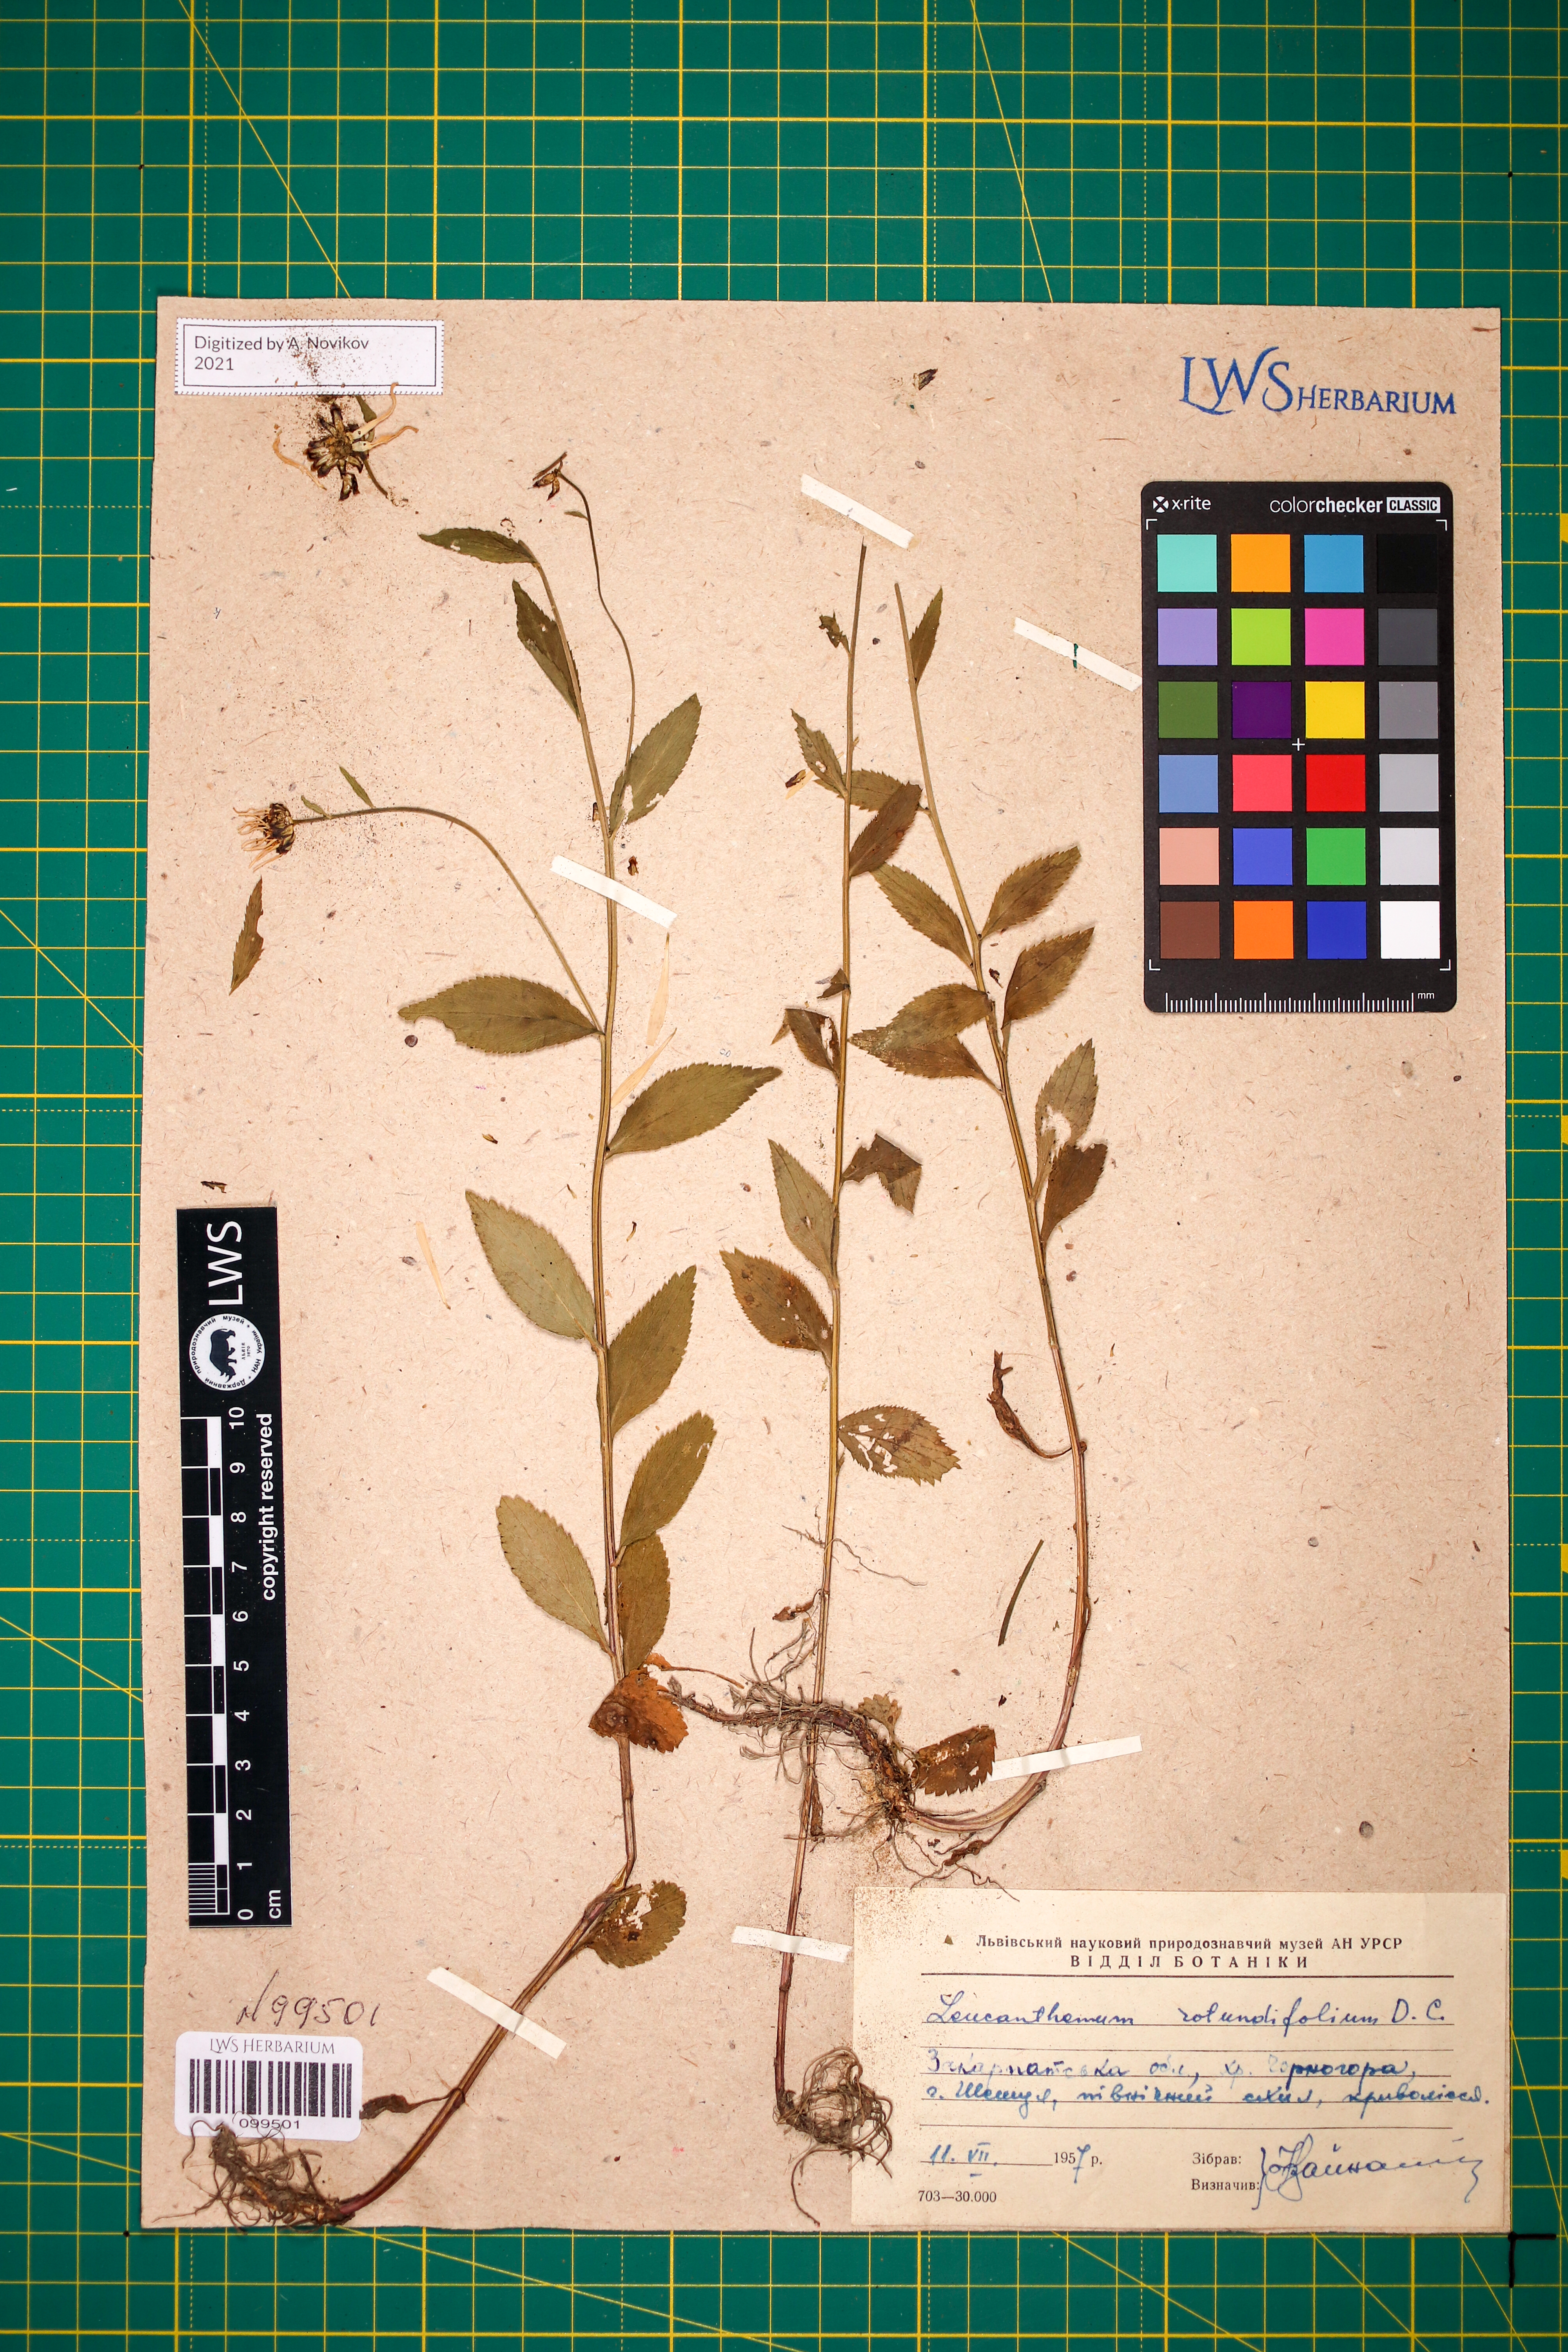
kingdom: Plantae
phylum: Tracheophyta
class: Magnoliopsida
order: Asterales
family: Asteraceae
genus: Leucanthemum
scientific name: Leucanthemum rotundifolium
